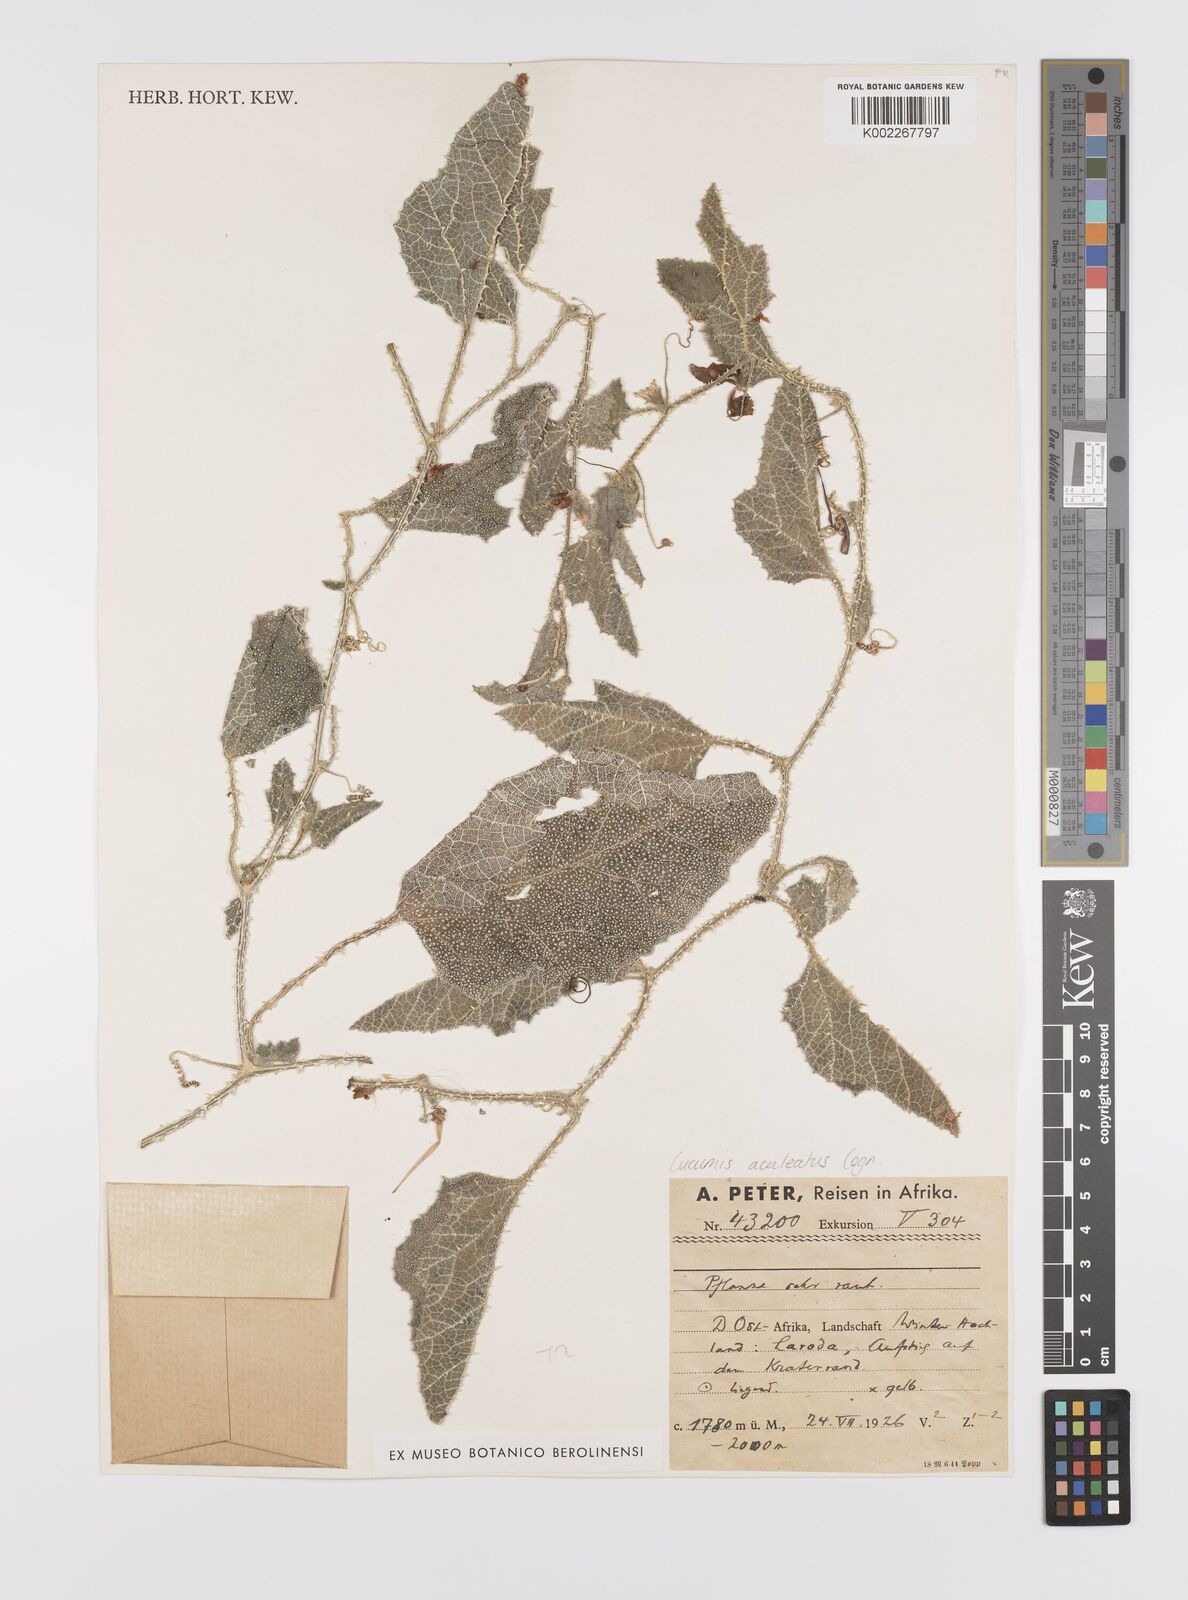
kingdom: Plantae
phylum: Tracheophyta
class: Magnoliopsida
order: Cucurbitales
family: Cucurbitaceae
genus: Cucumis
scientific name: Cucumis aculeatus
